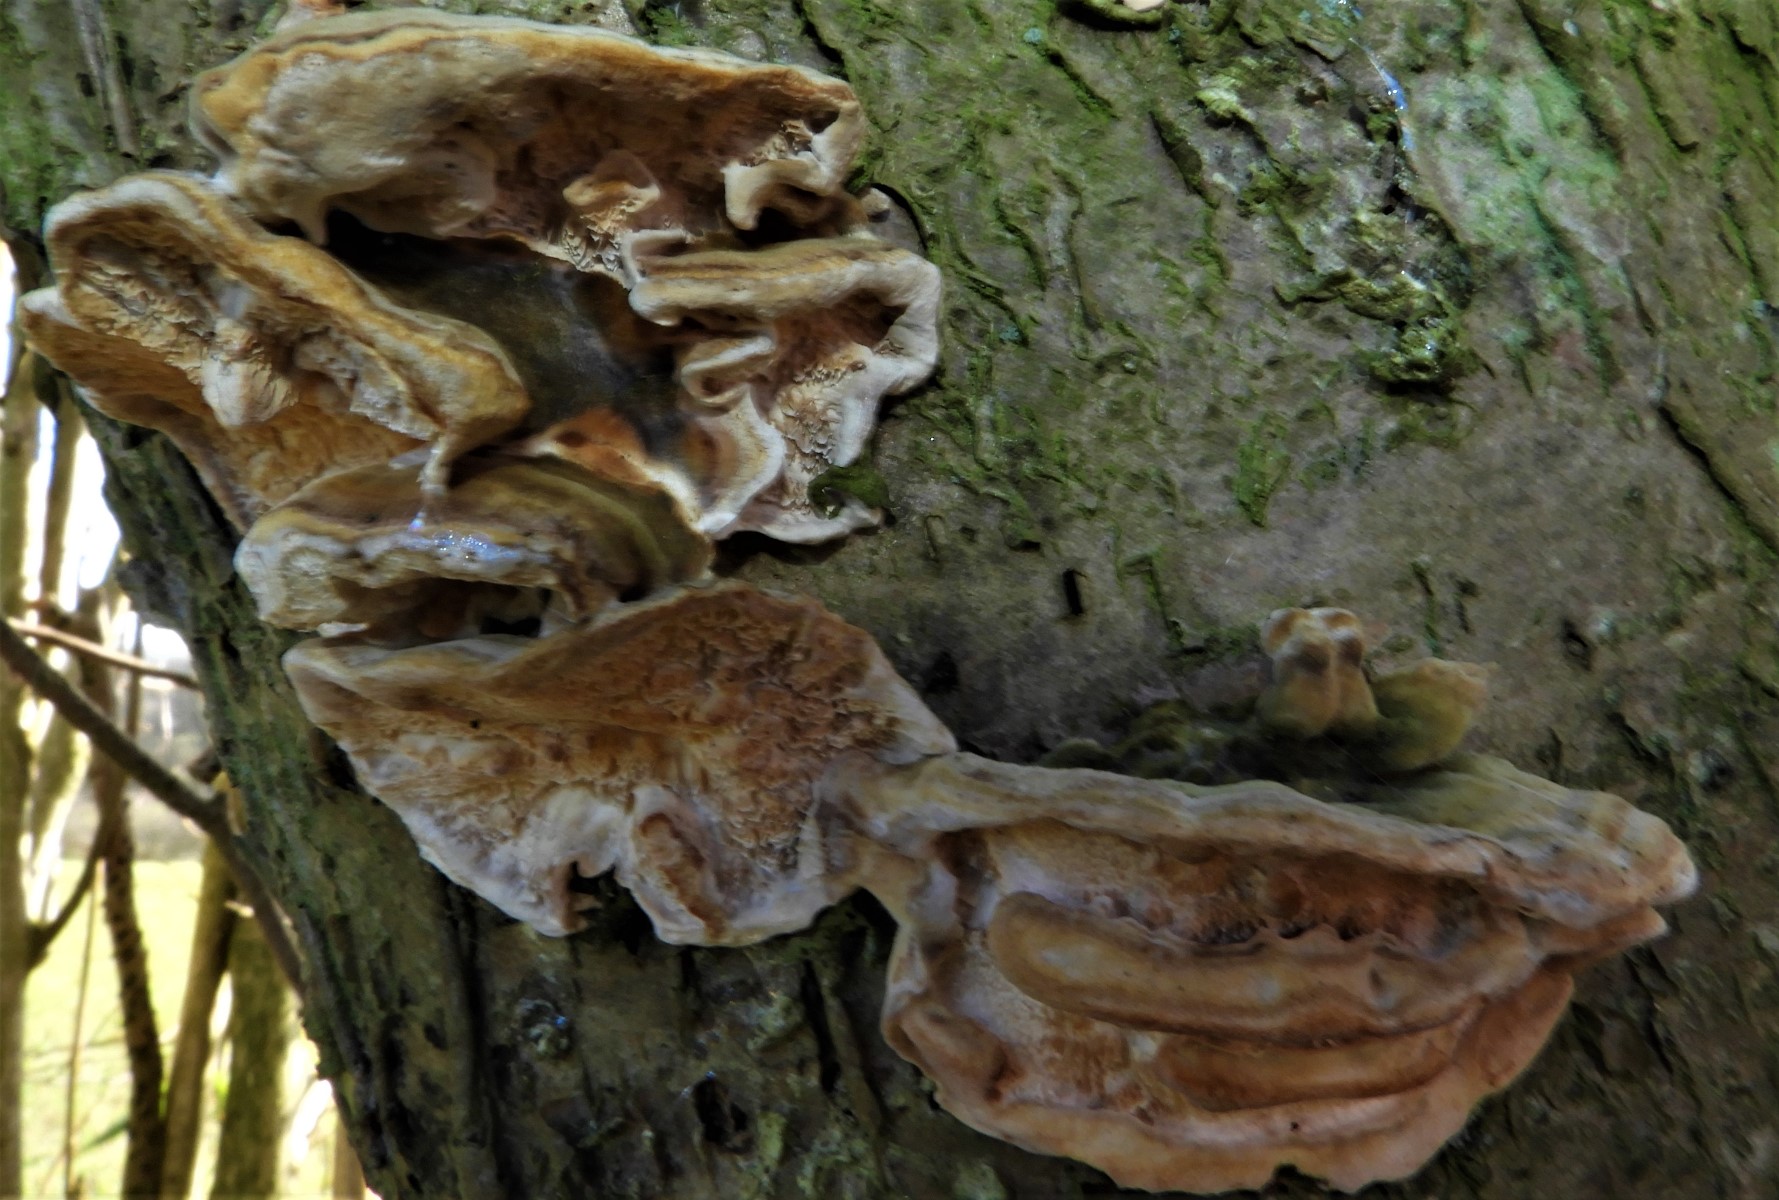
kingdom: Fungi
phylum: Basidiomycota
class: Agaricomycetes
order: Polyporales
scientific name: Polyporales
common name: poresvampordenen
